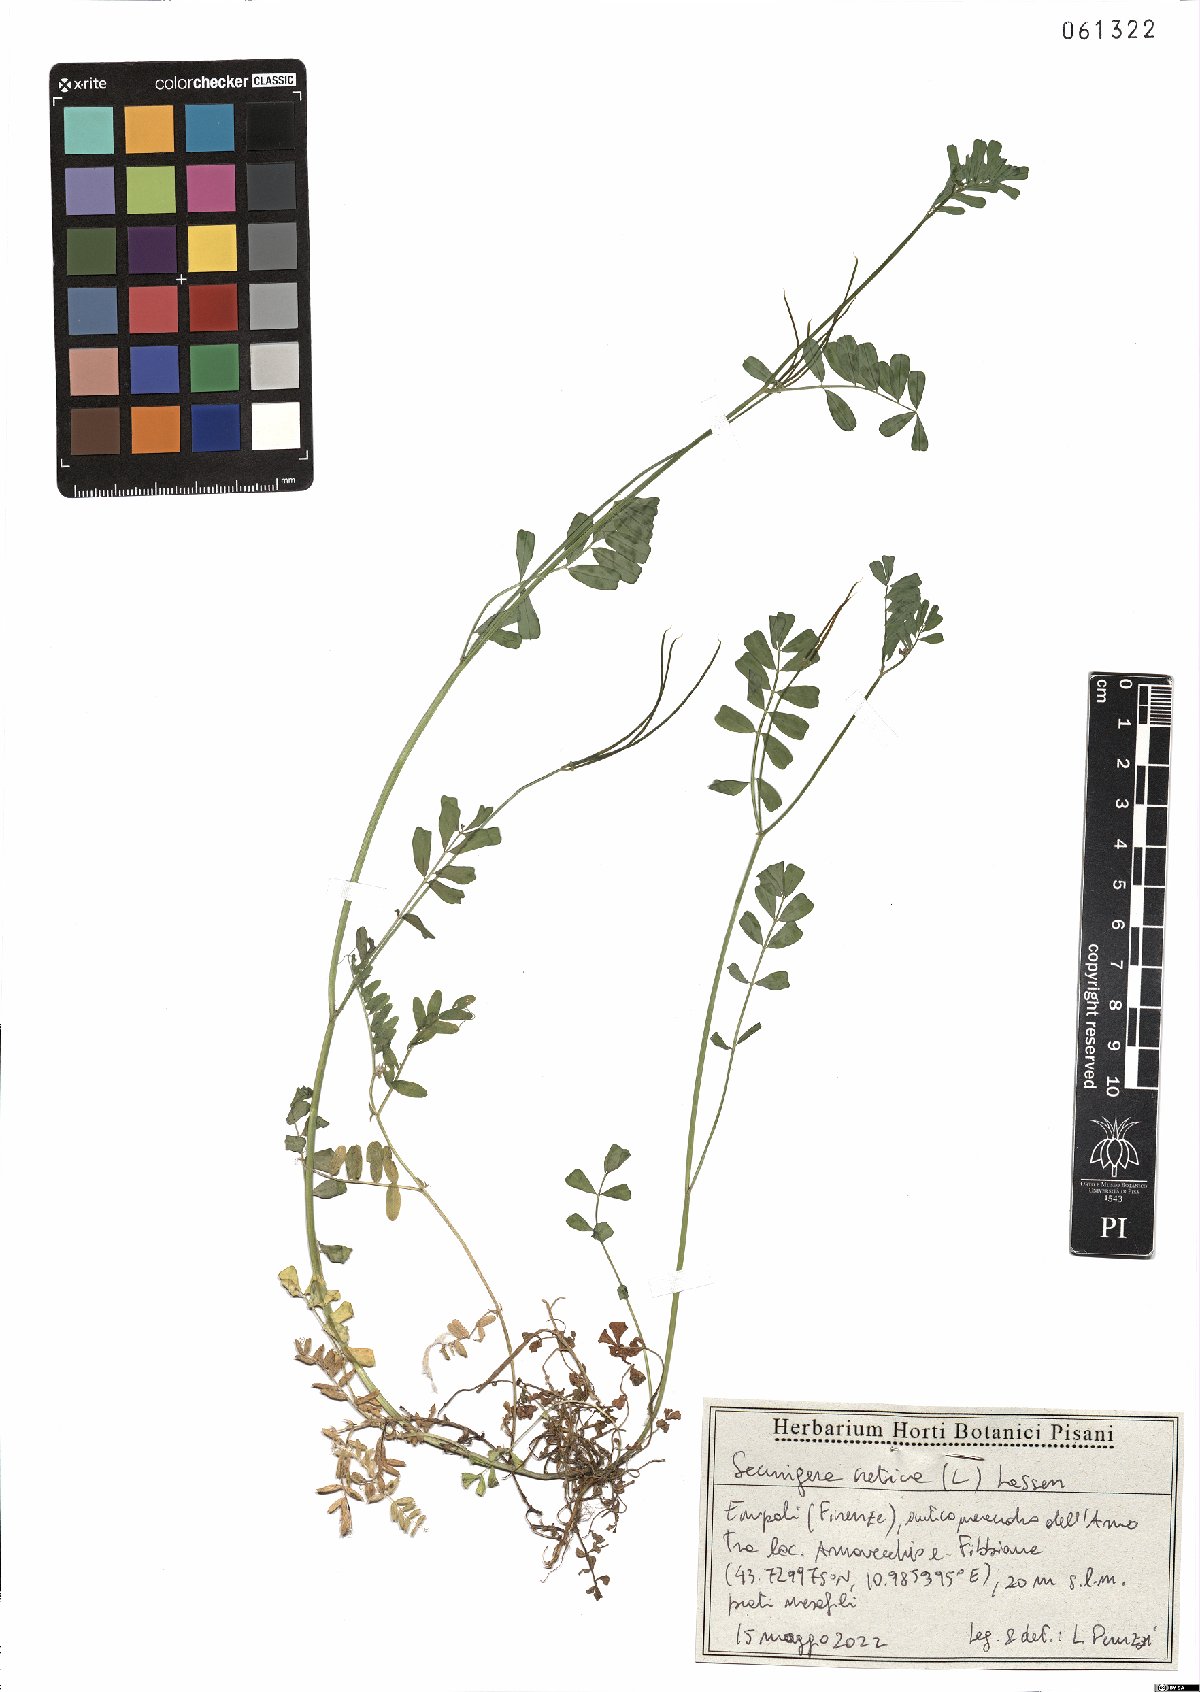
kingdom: Plantae
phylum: Tracheophyta
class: Magnoliopsida
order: Fabales
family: Fabaceae
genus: Coronilla
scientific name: Coronilla cretica
